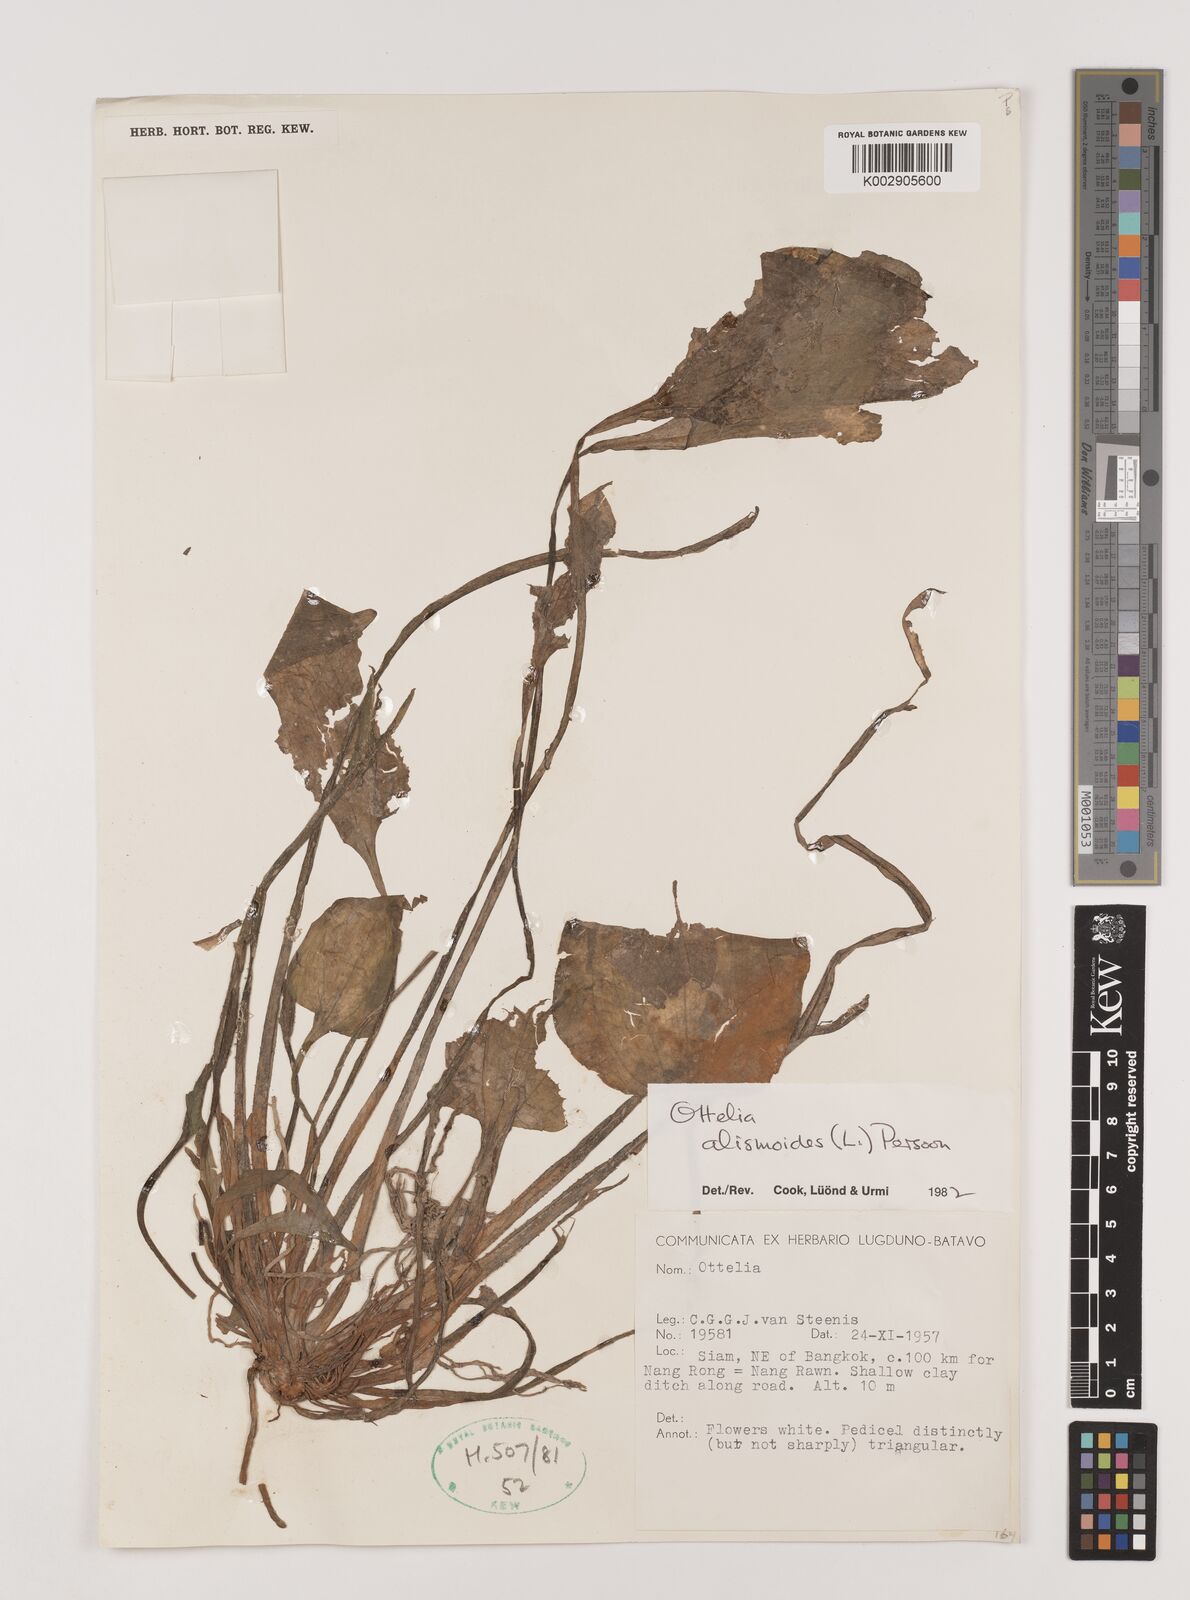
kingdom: Plantae
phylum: Tracheophyta
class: Liliopsida
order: Alismatales
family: Hydrocharitaceae
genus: Ottelia
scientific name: Ottelia alismoides
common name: Duck-lettuce
